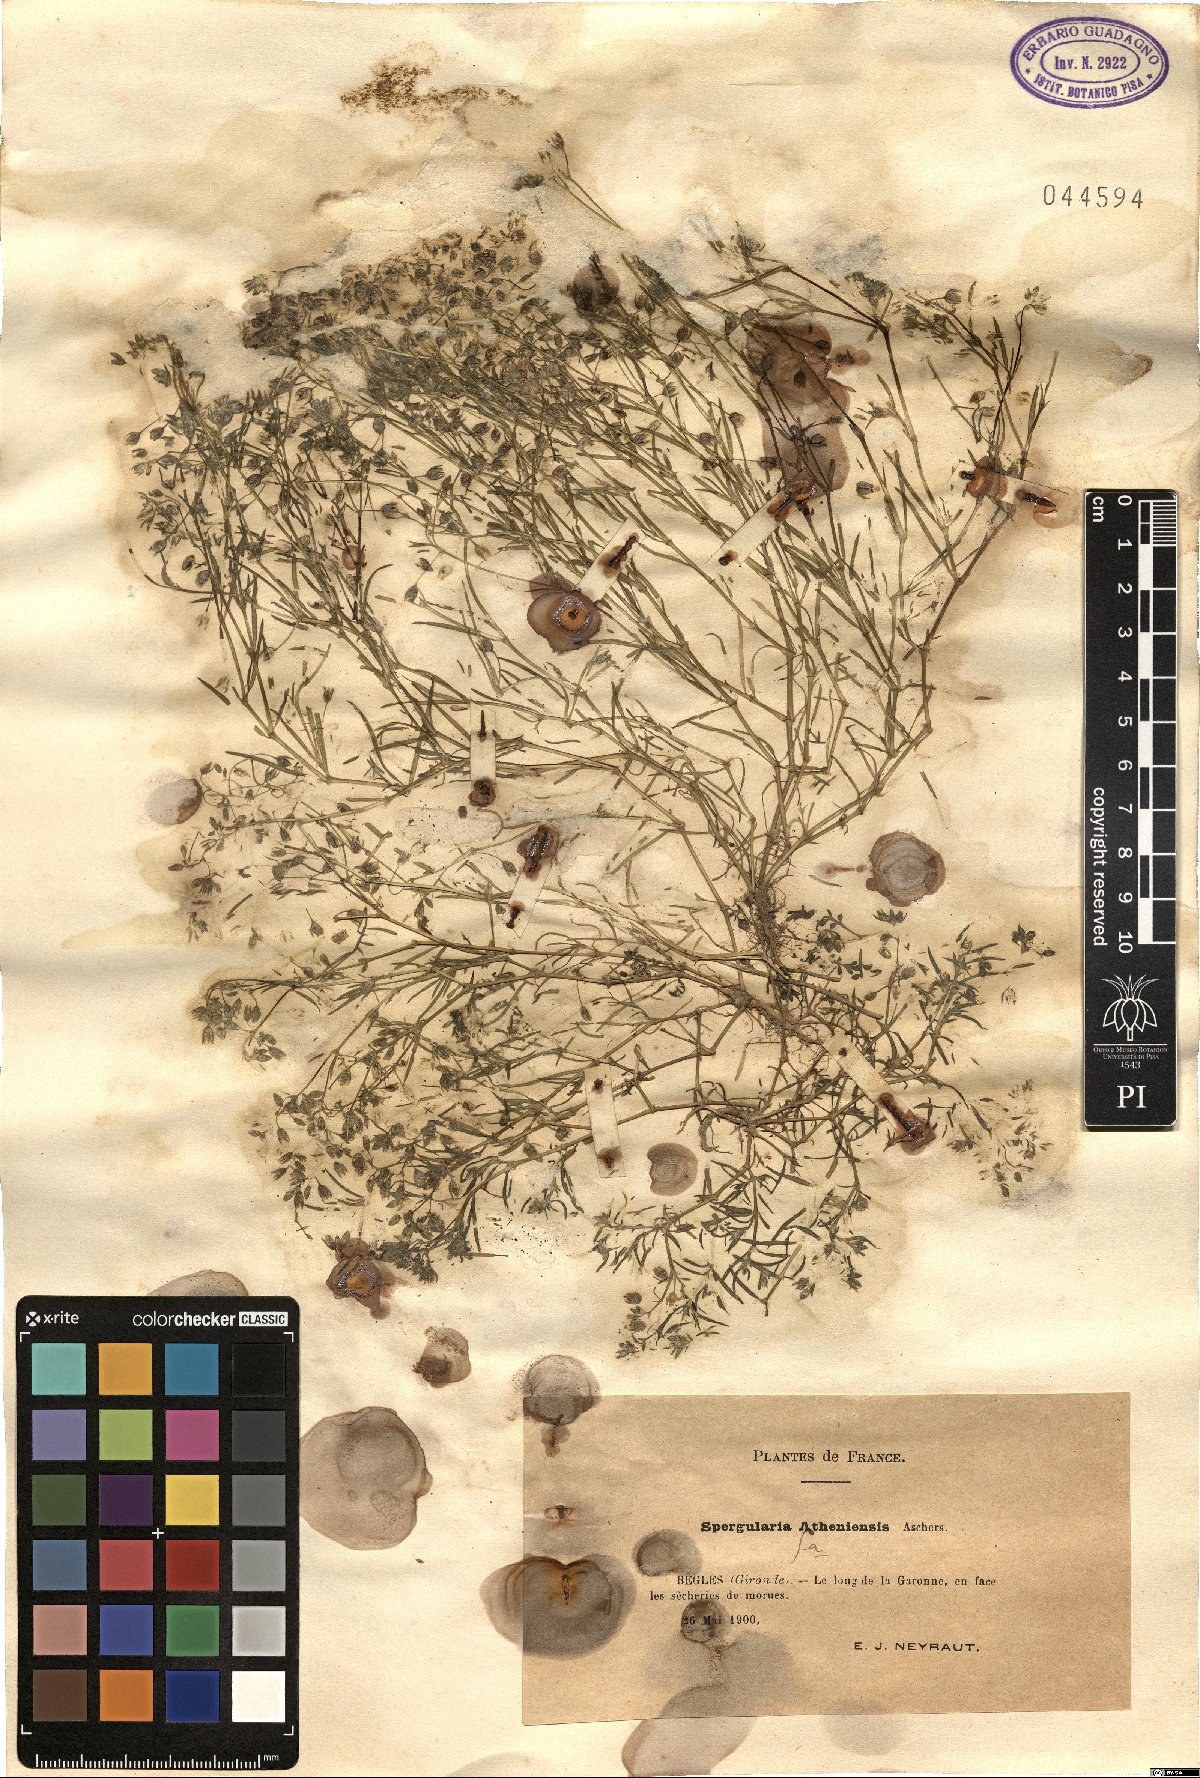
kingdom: Plantae
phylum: Tracheophyta
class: Magnoliopsida
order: Caryophyllales
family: Caryophyllaceae
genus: Spergularia
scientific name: Spergularia bocconei
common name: Greek sea-spurrey
